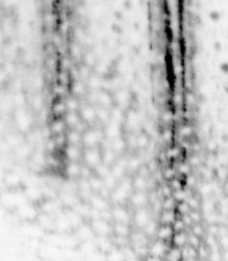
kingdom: Animalia
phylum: Chordata
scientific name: Chordata
